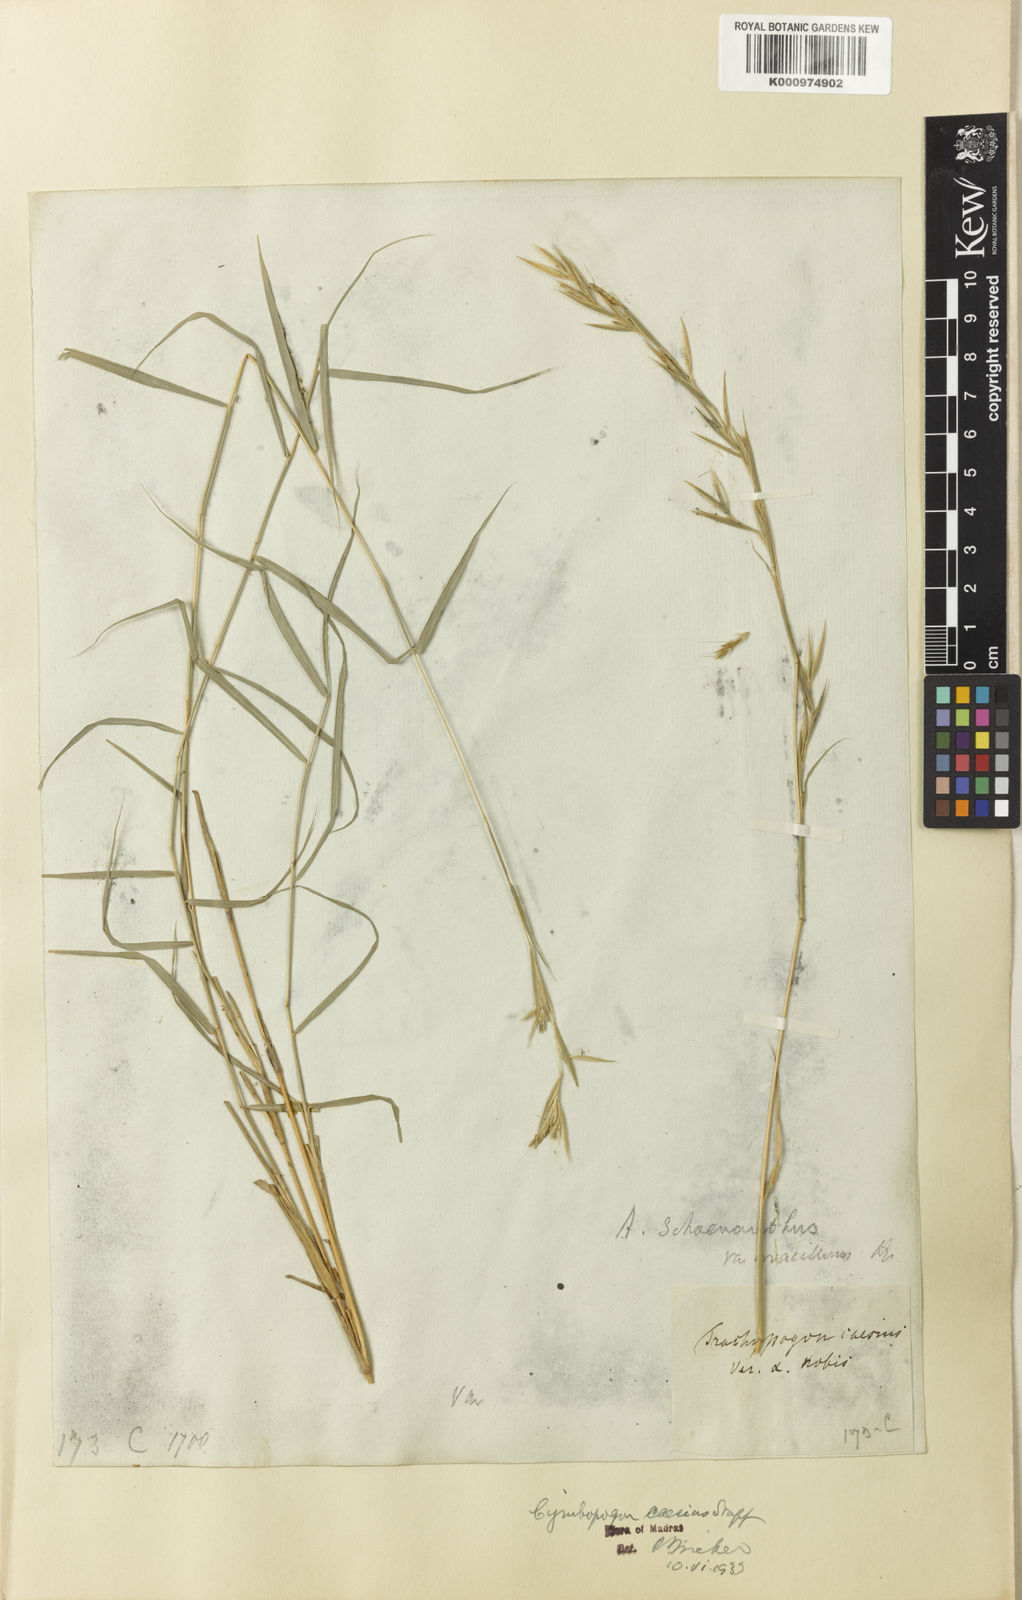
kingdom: Plantae
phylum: Tracheophyta
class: Liliopsida
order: Poales
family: Poaceae
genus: Cymbopogon
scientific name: Cymbopogon caesius
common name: Kachi grass
